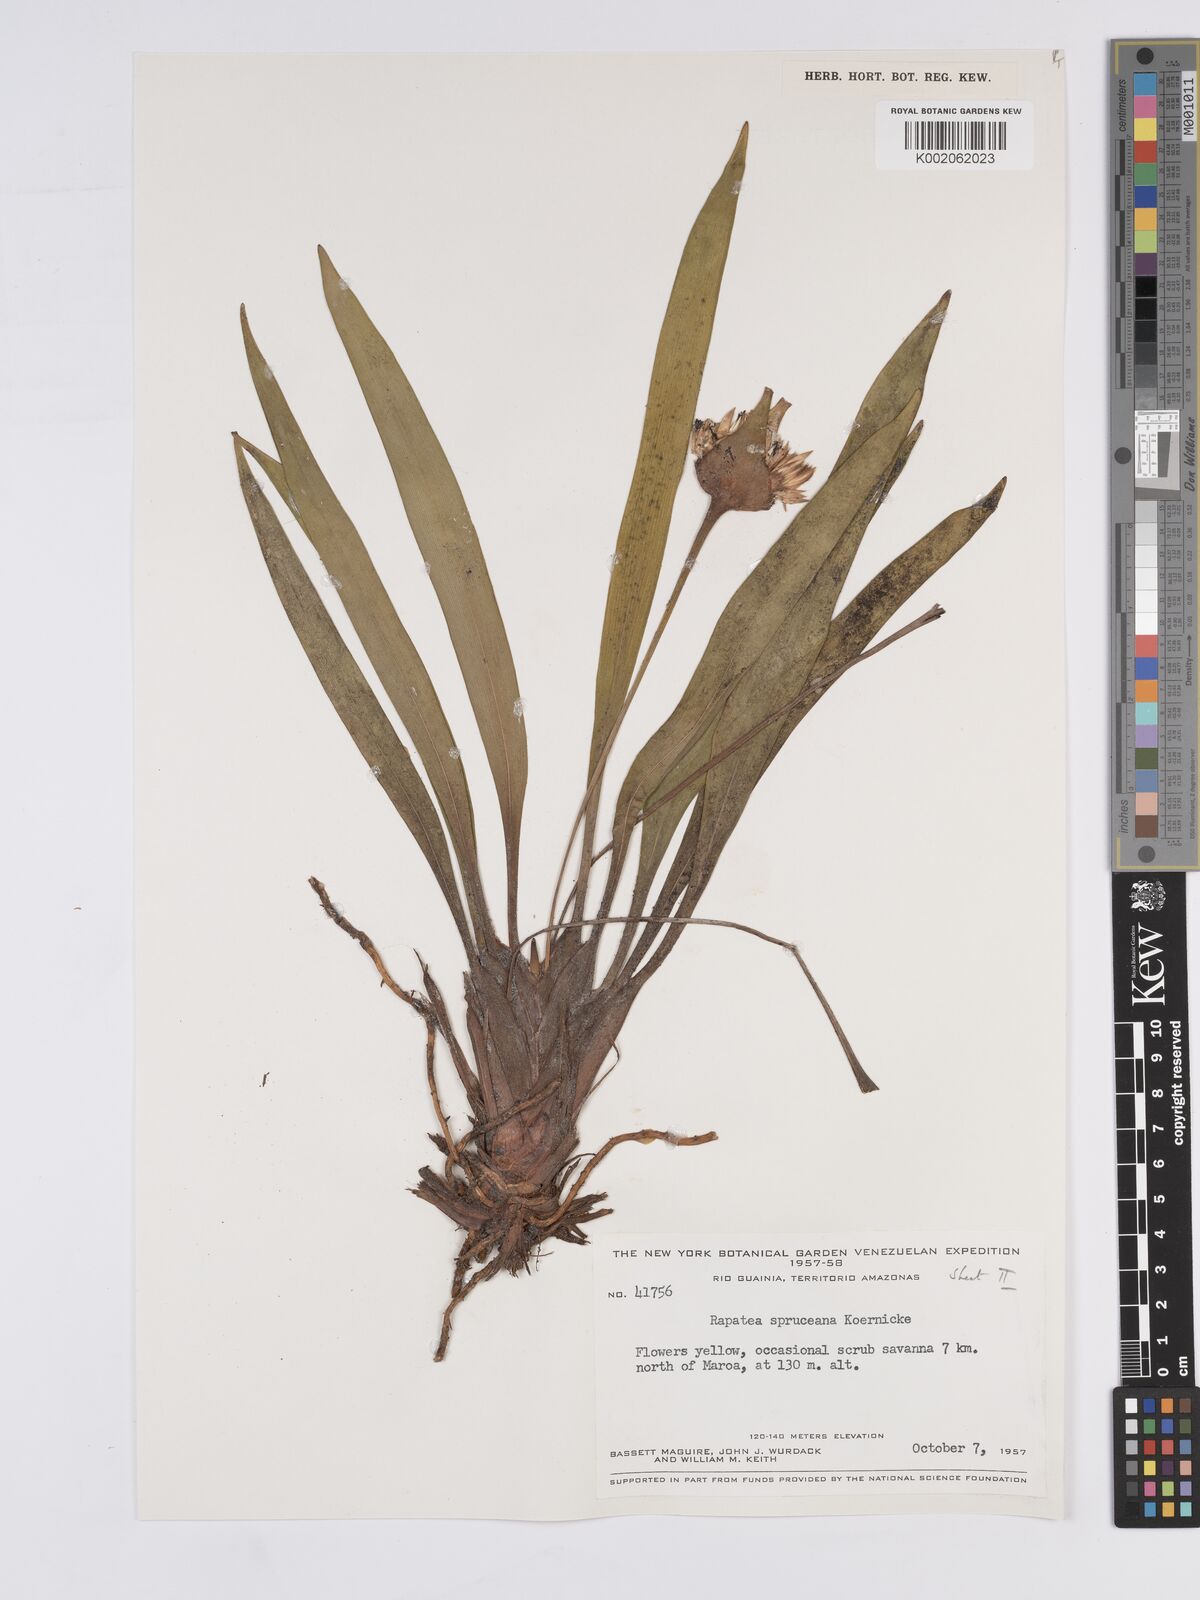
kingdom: Plantae
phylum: Tracheophyta
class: Liliopsida
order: Poales
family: Rapateaceae
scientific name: Rapateaceae
